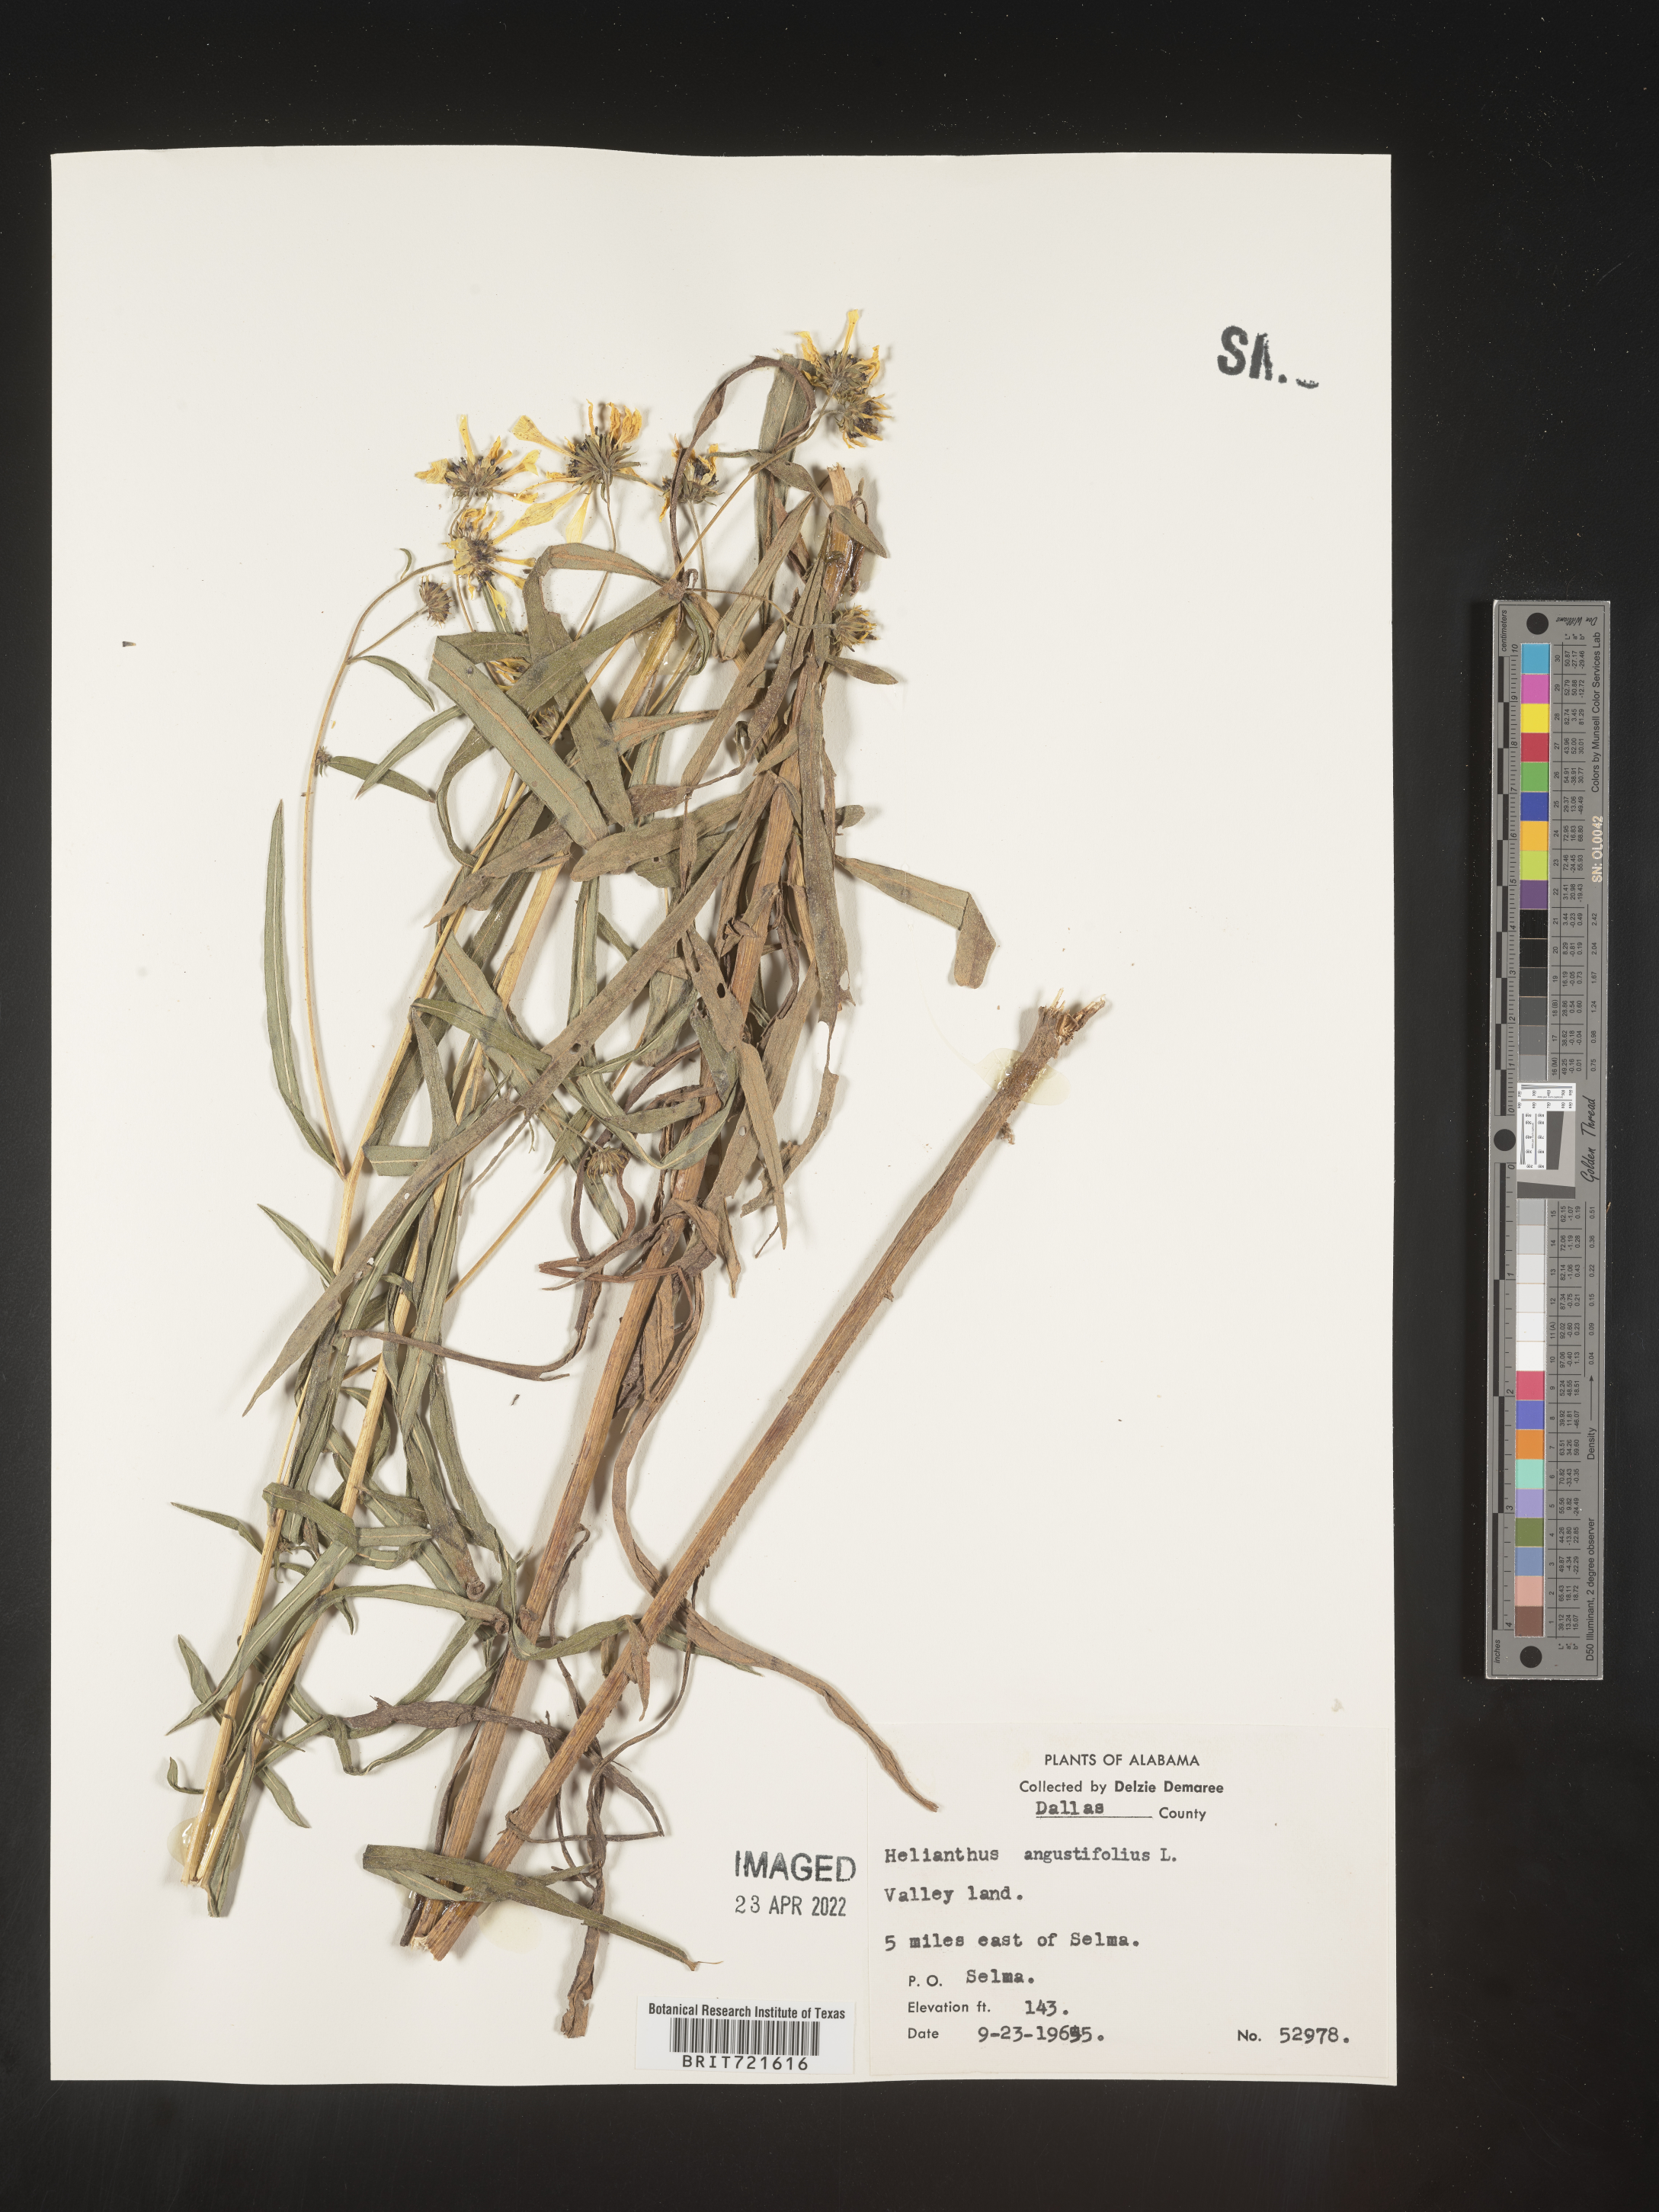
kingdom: Plantae
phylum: Tracheophyta
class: Magnoliopsida
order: Asterales
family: Asteraceae
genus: Helianthus
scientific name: Helianthus angustifolius
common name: Swamp sunflower
